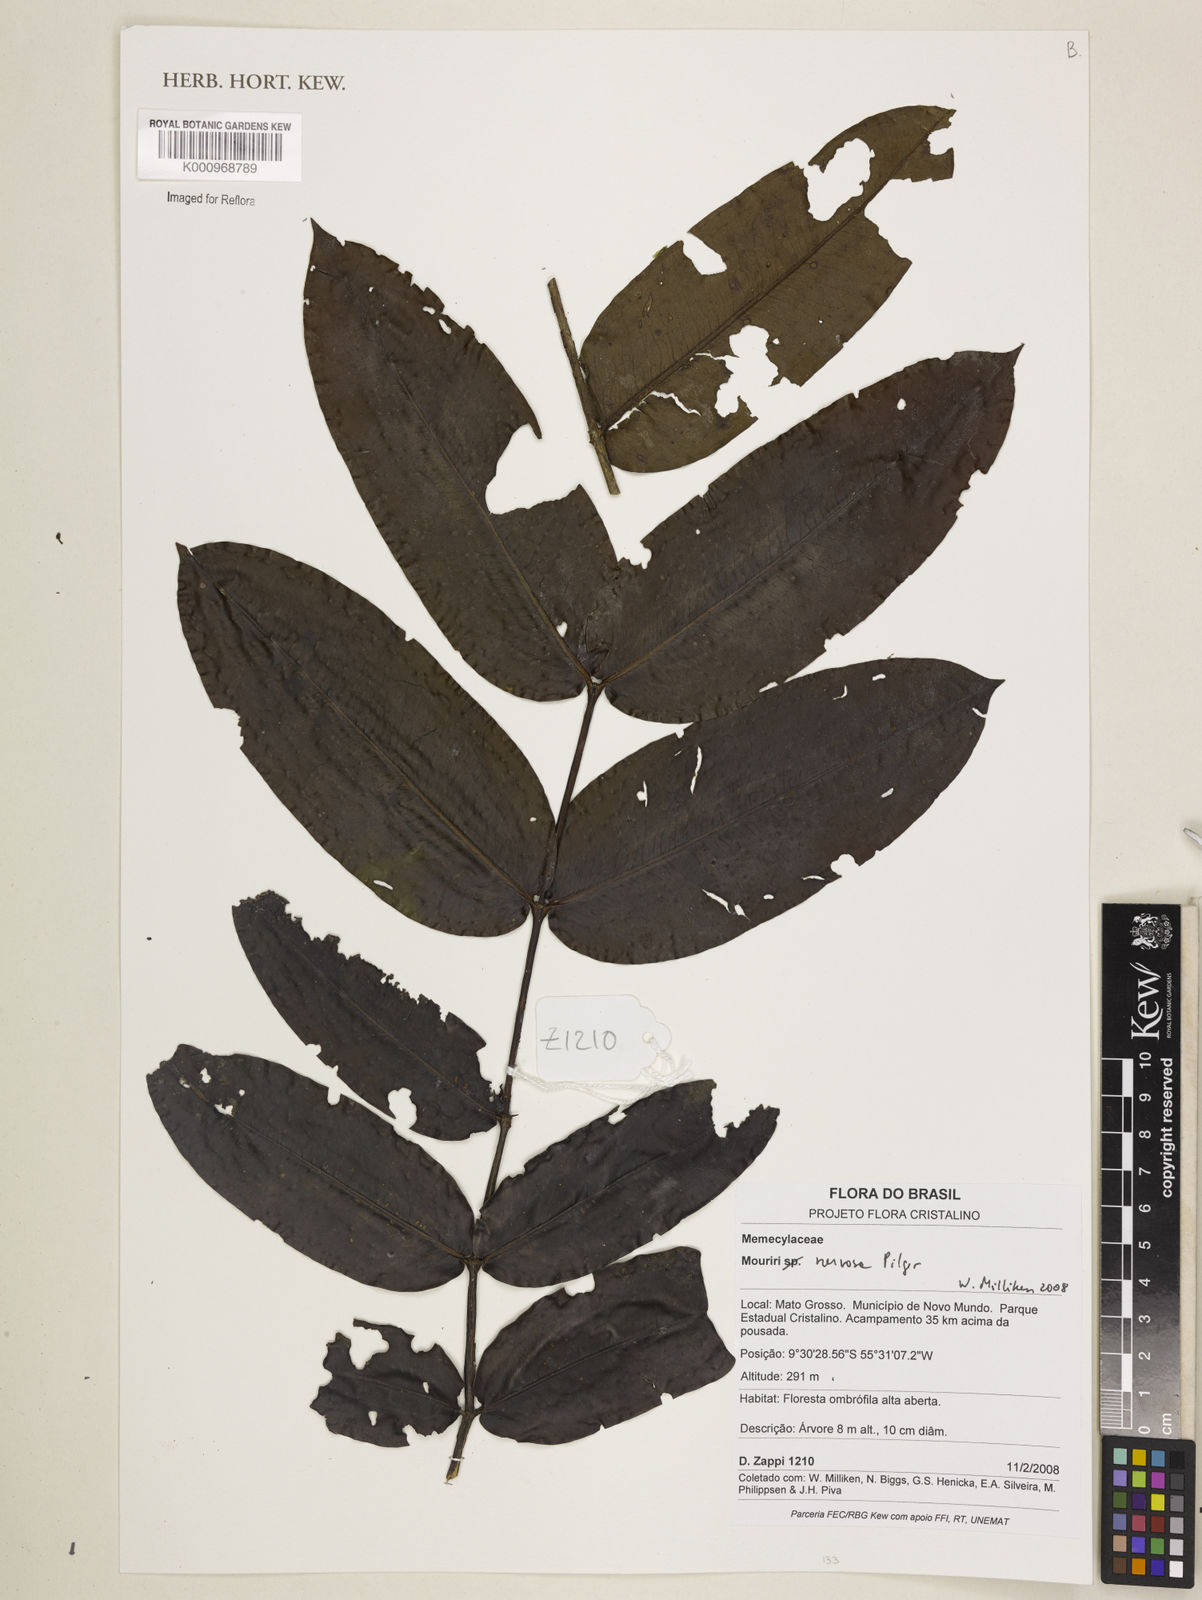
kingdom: Plantae
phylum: Tracheophyta
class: Magnoliopsida
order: Myrtales
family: Melastomataceae
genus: Mouriri
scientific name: Mouriri sideroxylon
